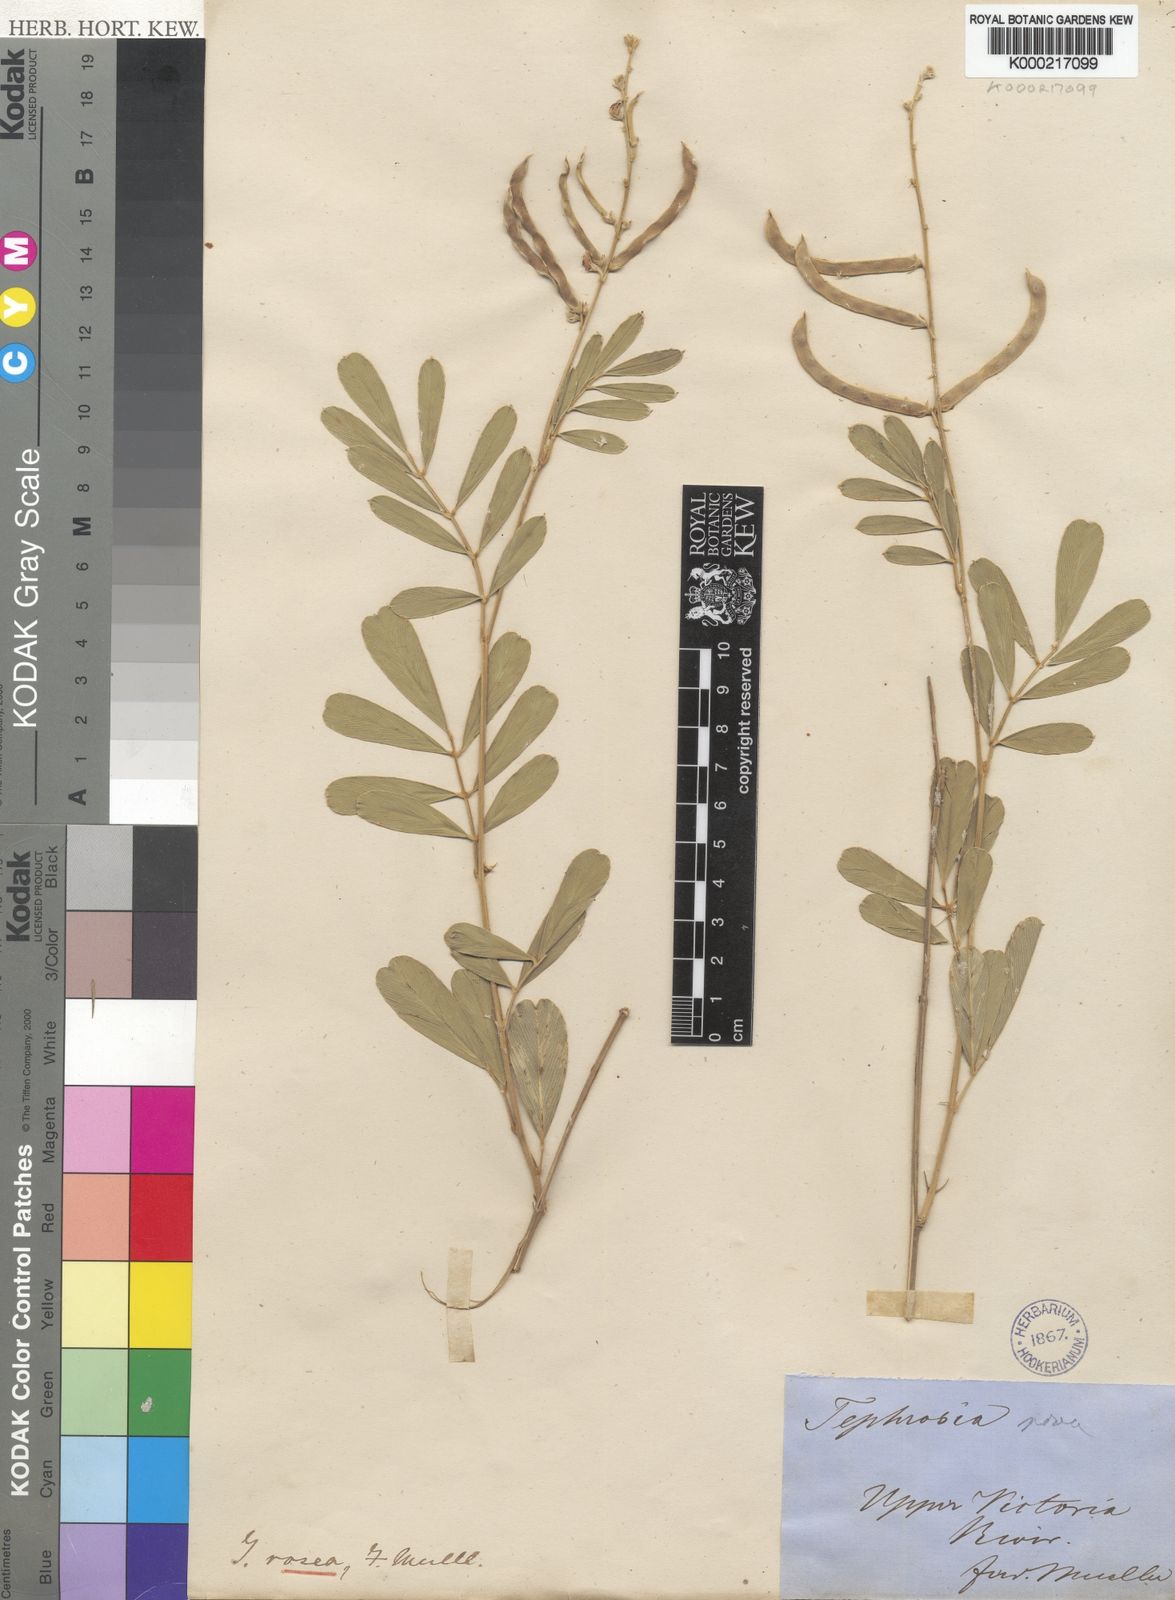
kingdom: Plantae
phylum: Tracheophyta
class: Magnoliopsida
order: Fabales
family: Fabaceae
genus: Tephrosia
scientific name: Tephrosia rosea
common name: Flinders river-poison
